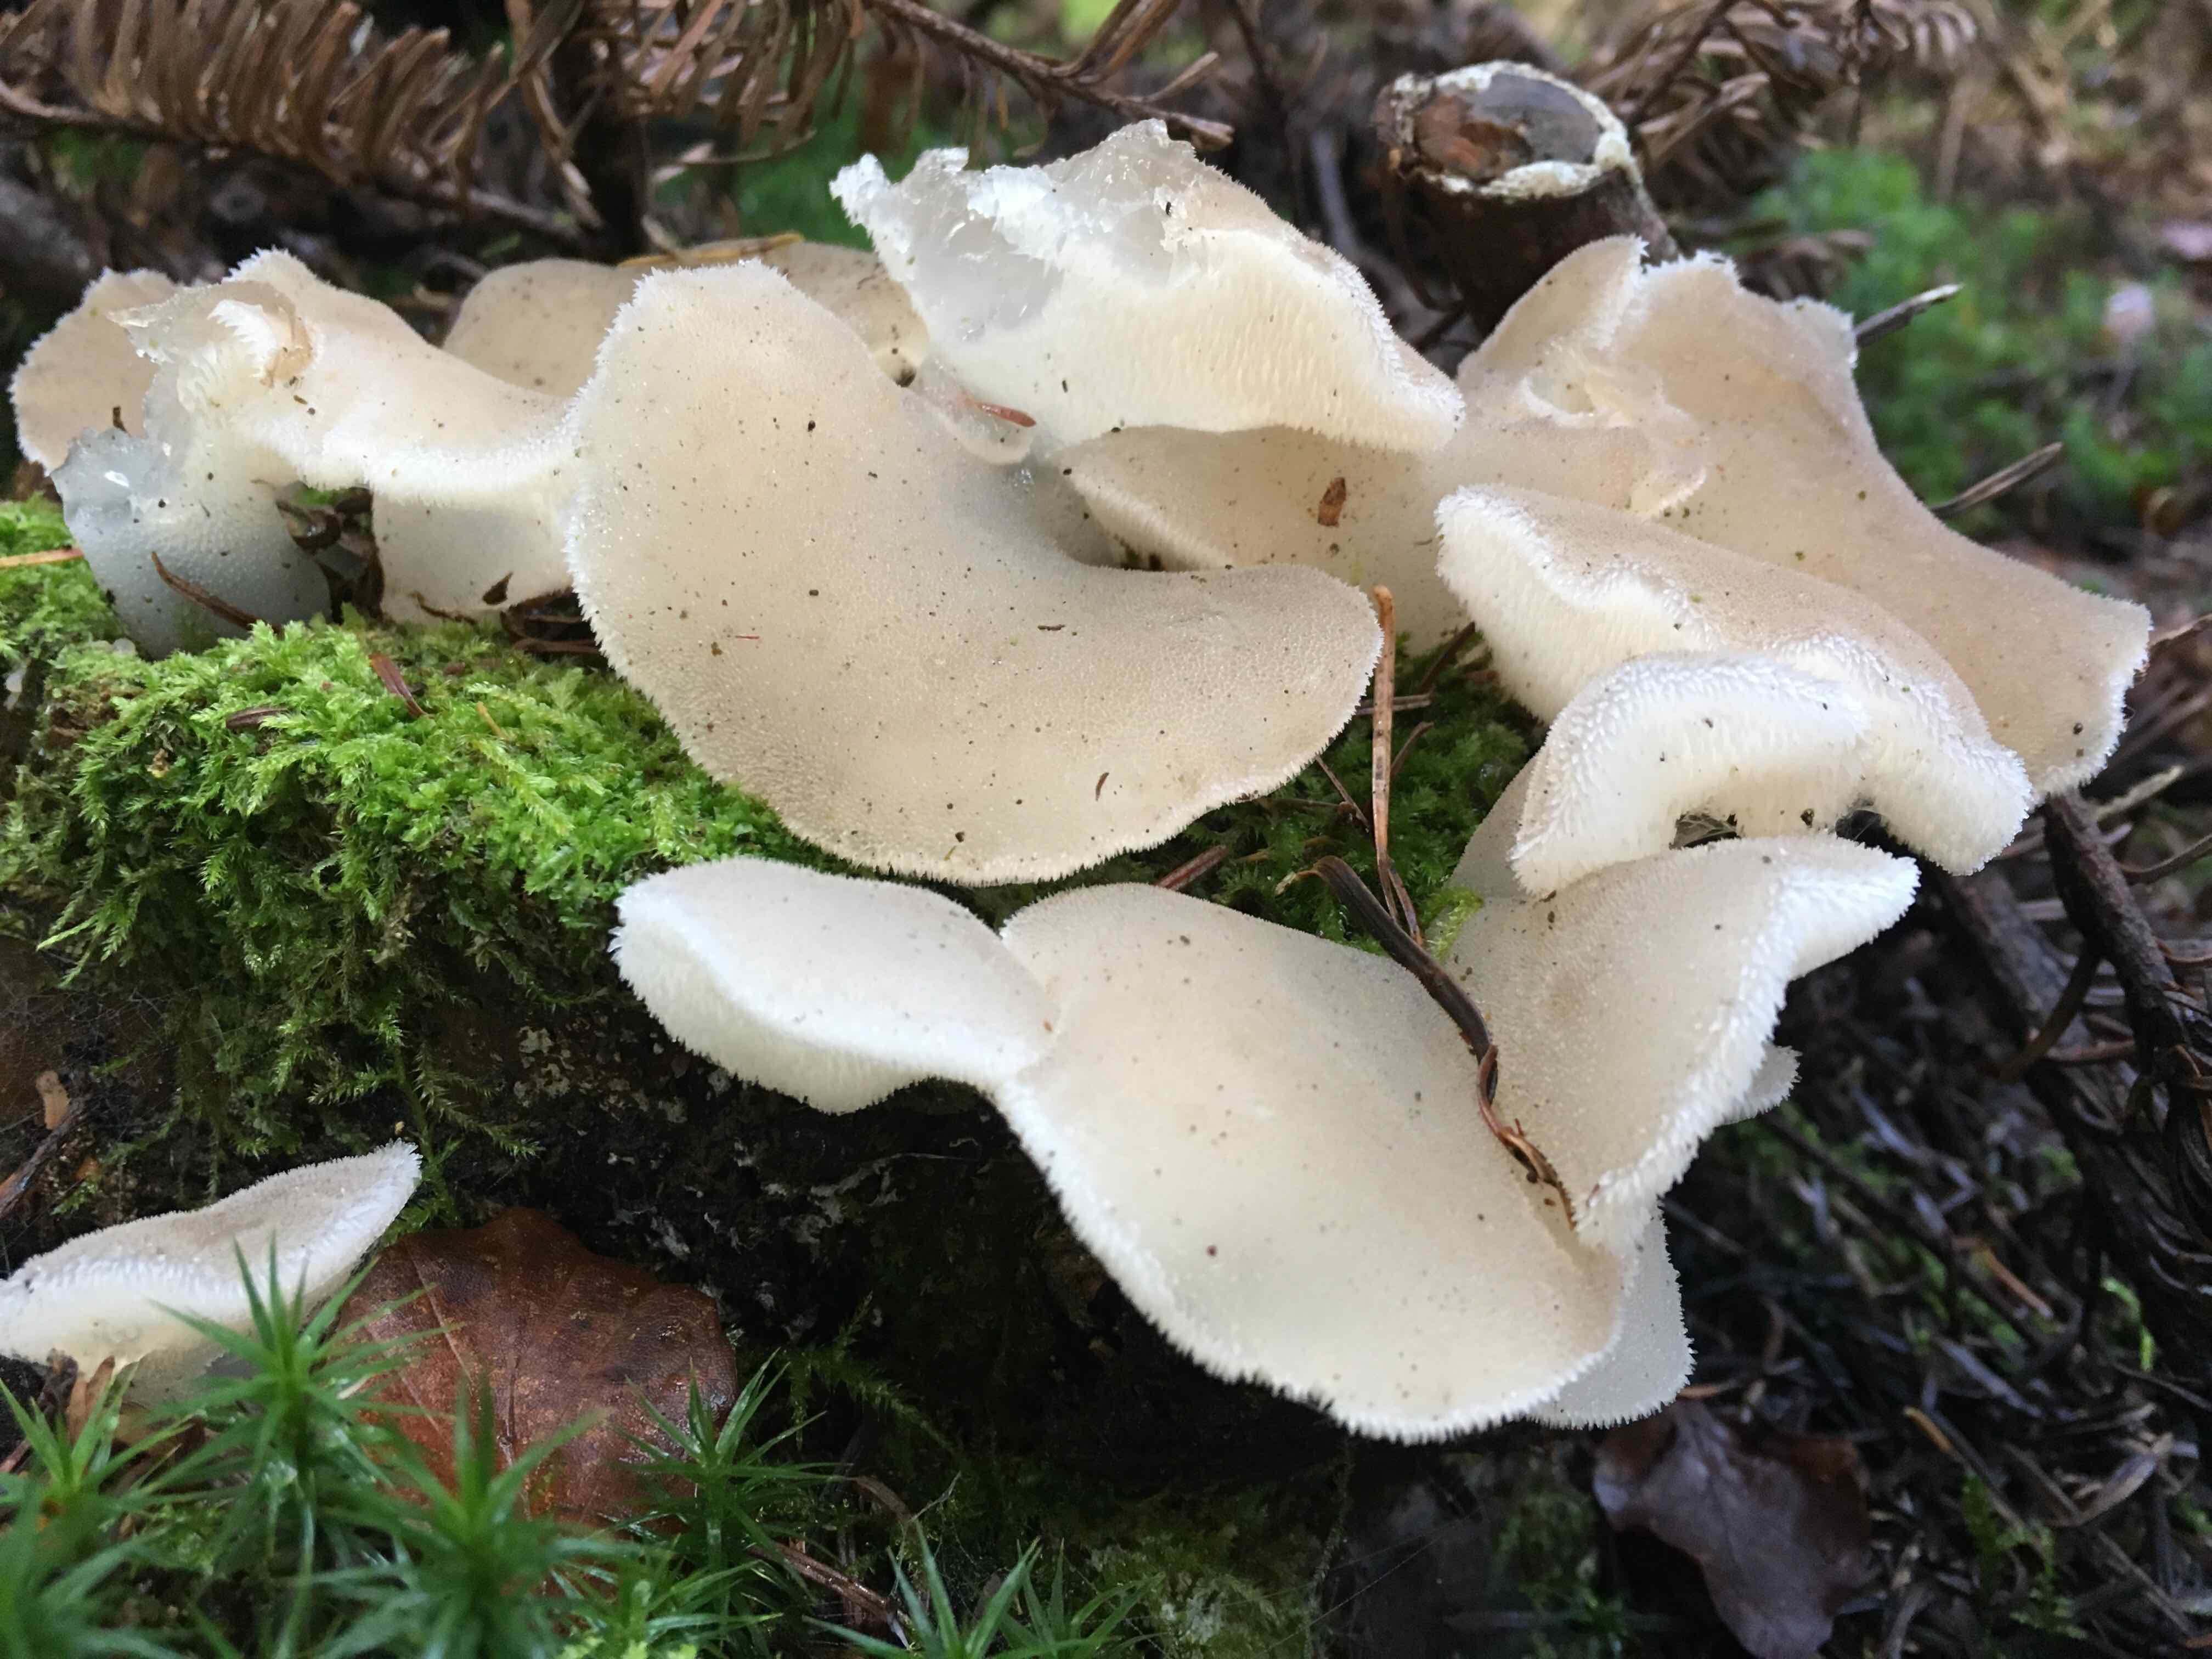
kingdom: Fungi
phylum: Basidiomycota
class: Agaricomycetes
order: Auriculariales
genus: Pseudohydnum
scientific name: Pseudohydnum gelatinosum
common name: bævretand
